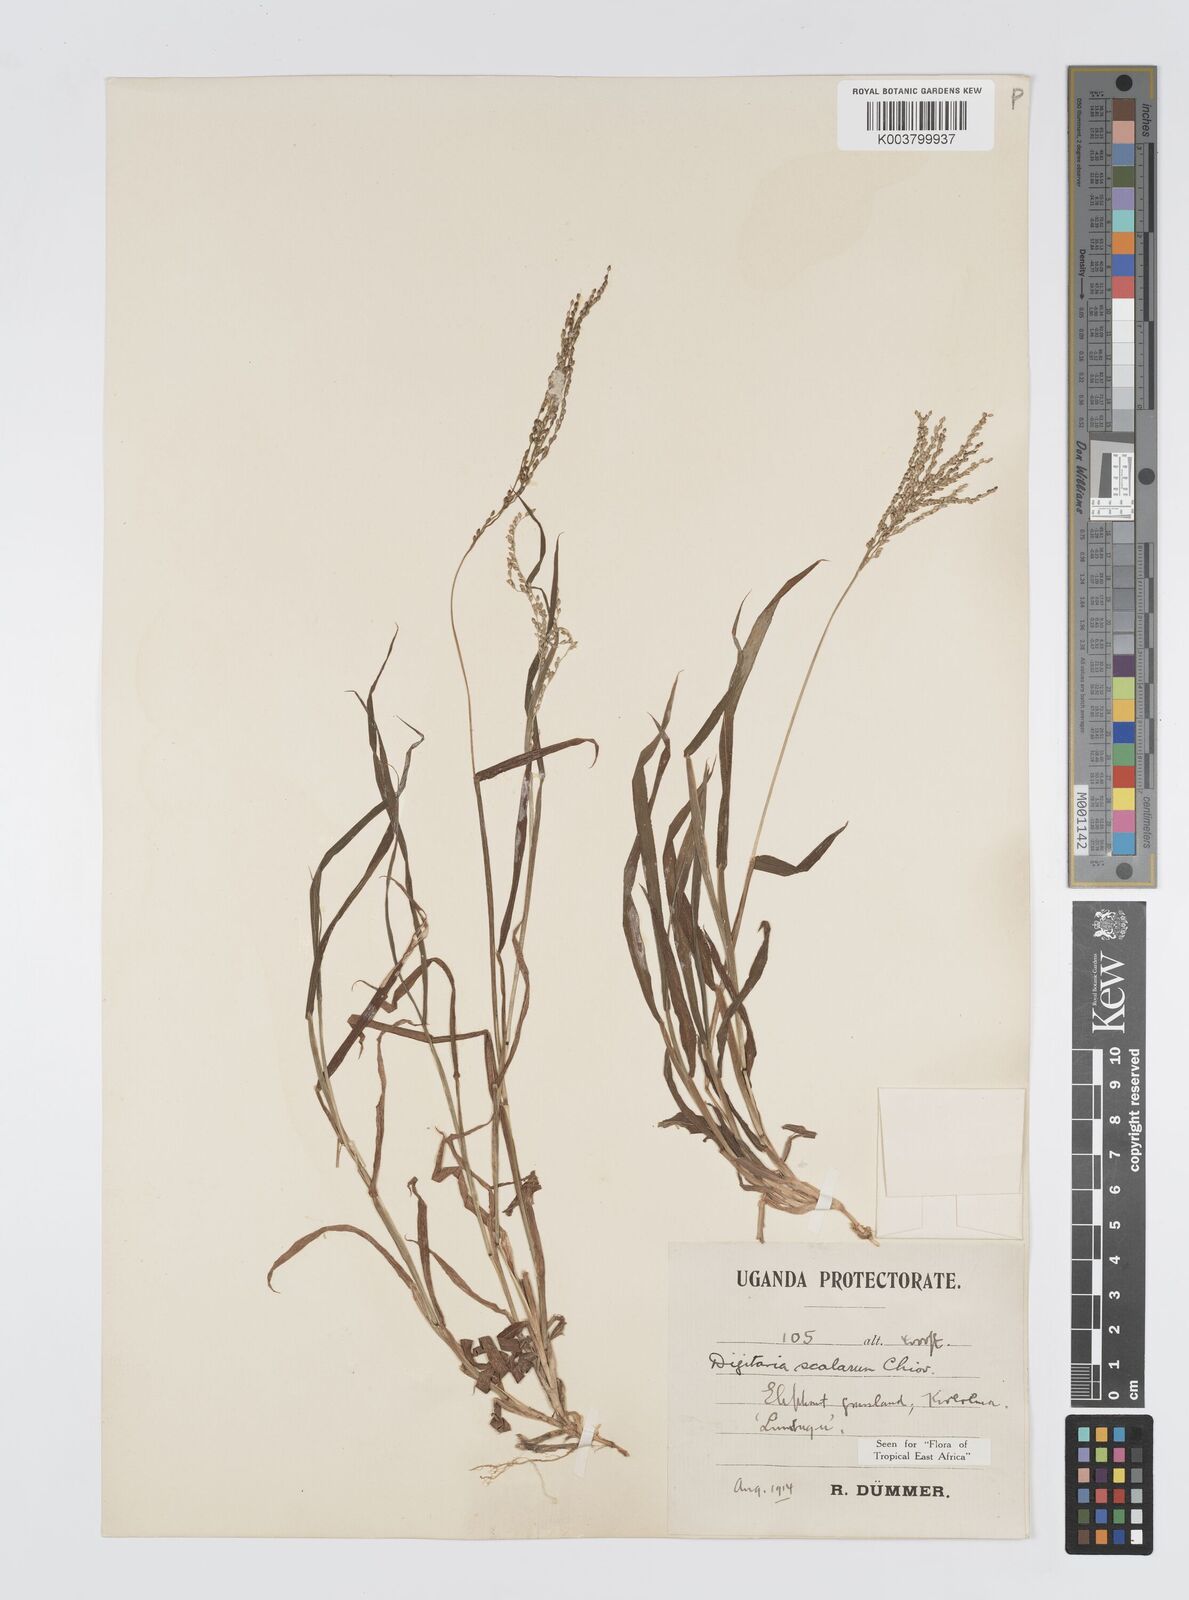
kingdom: Plantae
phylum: Tracheophyta
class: Liliopsida
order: Poales
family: Poaceae
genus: Digitaria
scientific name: Digitaria abyssinica
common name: African couchgrass
